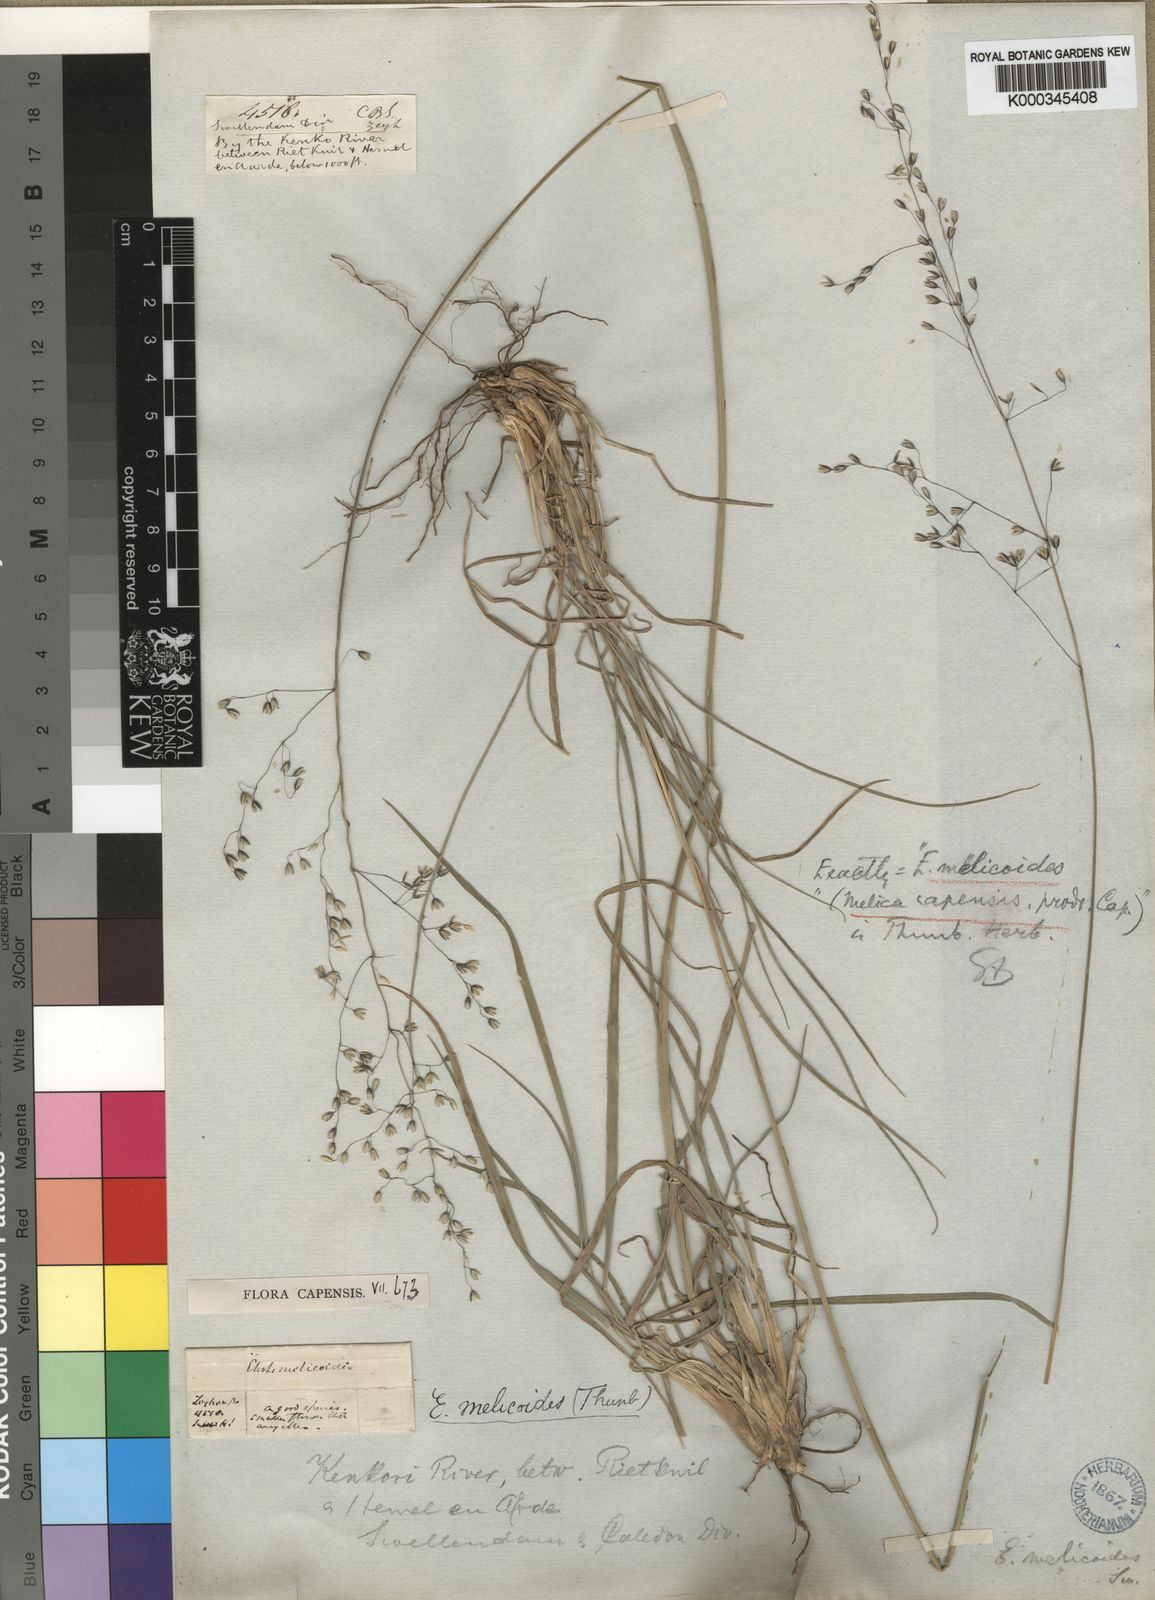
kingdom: Plantae
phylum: Tracheophyta
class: Liliopsida
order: Poales
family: Poaceae
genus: Ehrharta
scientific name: Ehrharta melicoides
